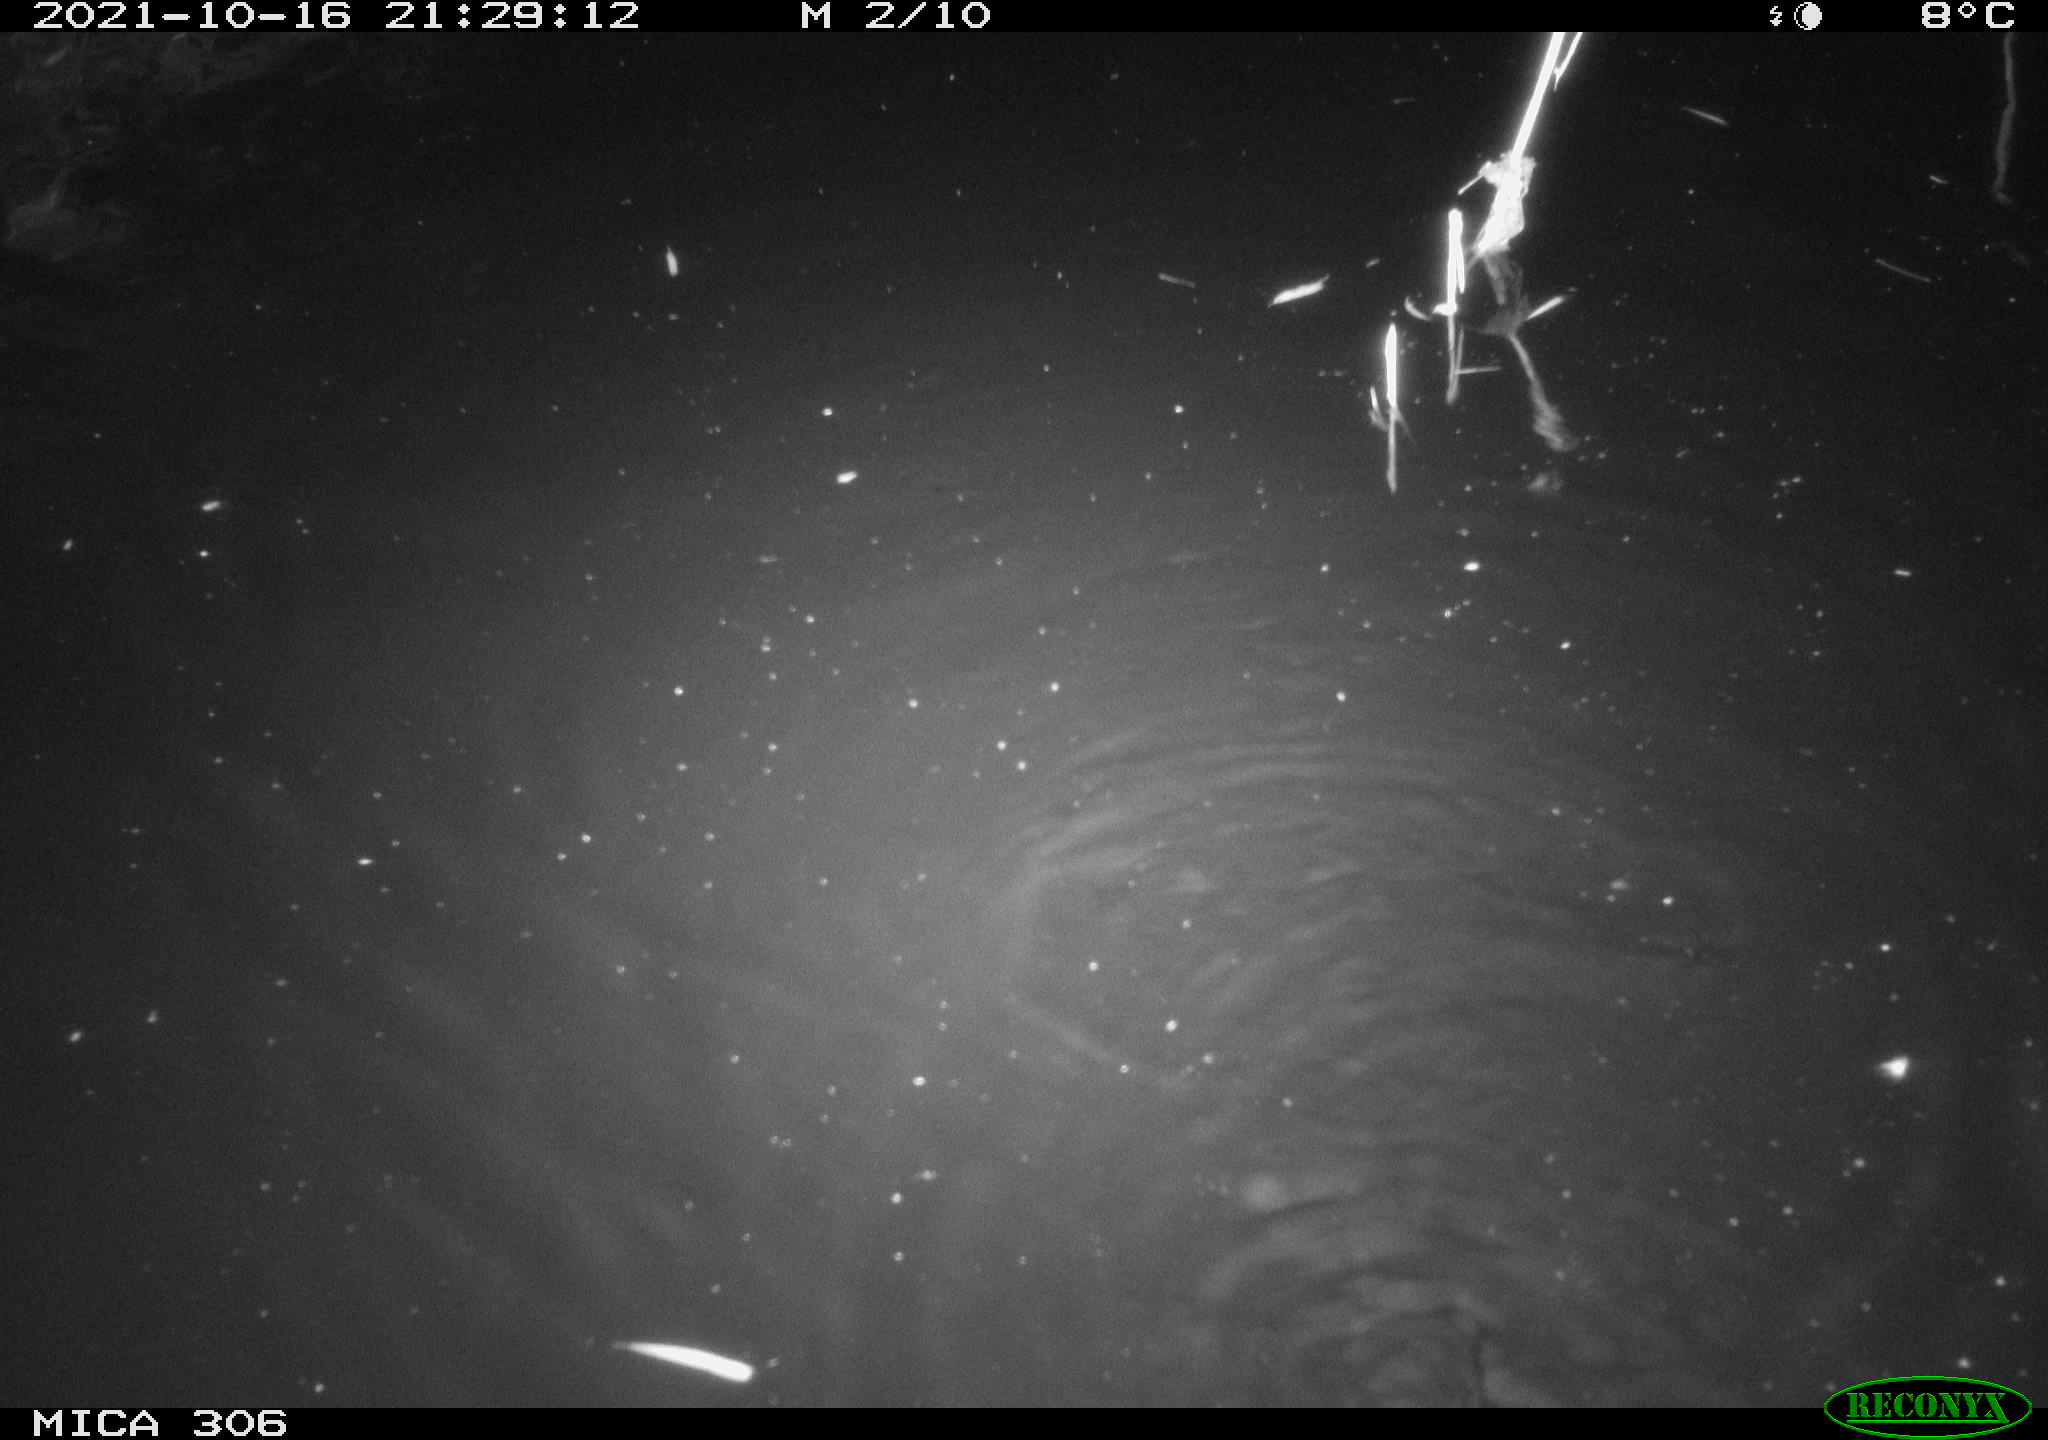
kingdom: Animalia
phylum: Chordata
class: Mammalia
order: Rodentia
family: Cricetidae
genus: Ondatra
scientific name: Ondatra zibethicus
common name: Muskrat
